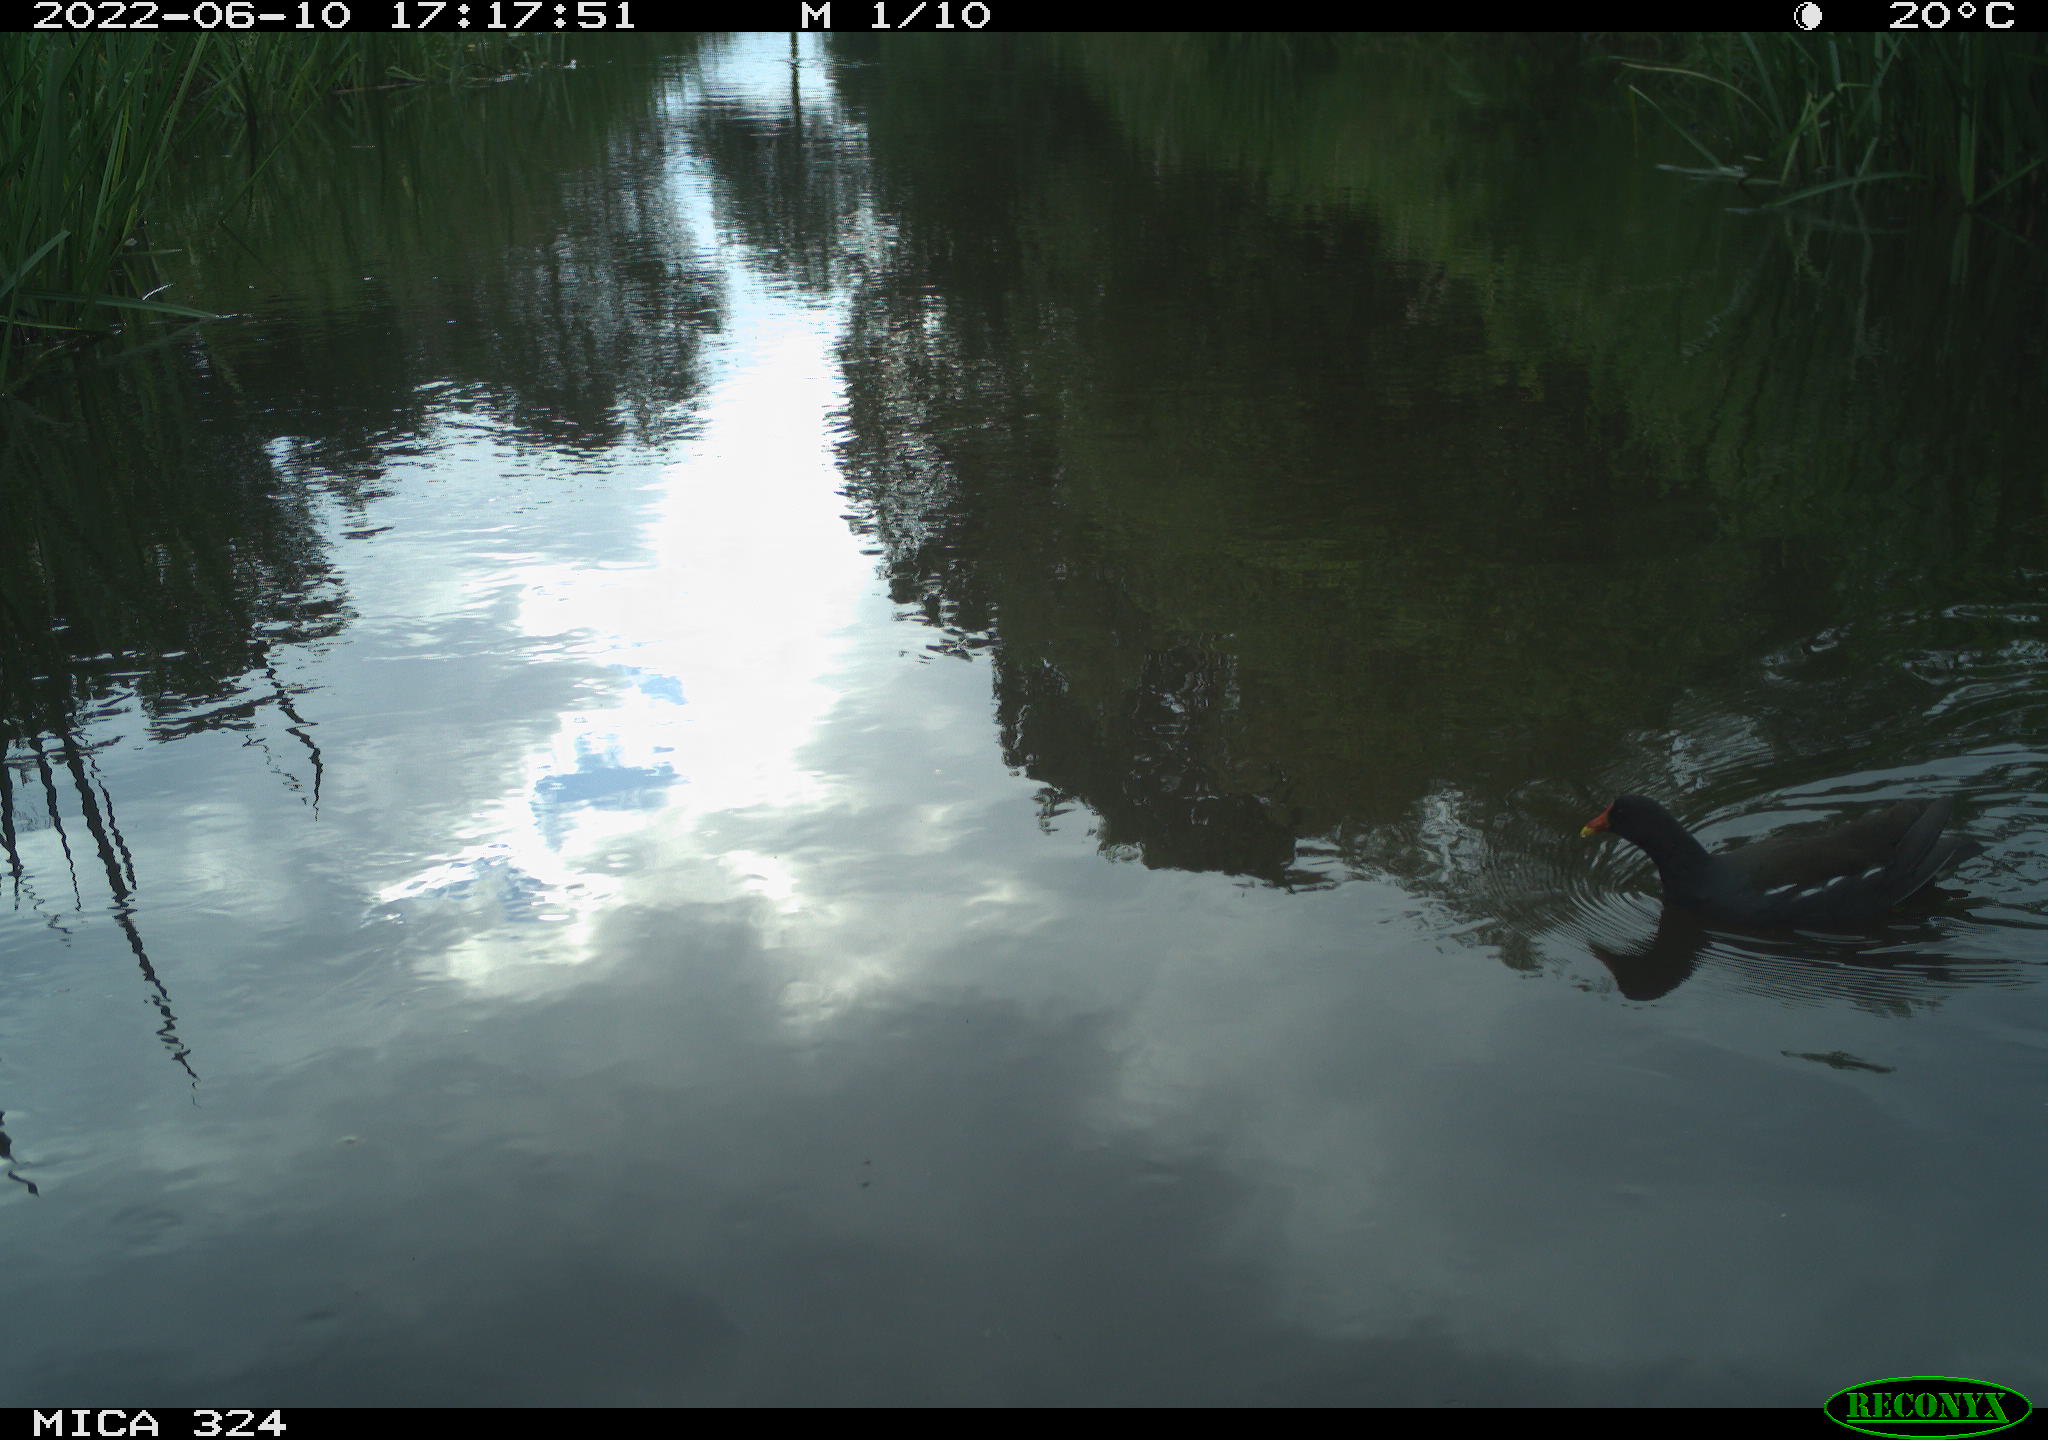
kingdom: Animalia
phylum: Chordata
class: Aves
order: Gruiformes
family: Rallidae
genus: Gallinula
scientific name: Gallinula chloropus
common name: Common moorhen
